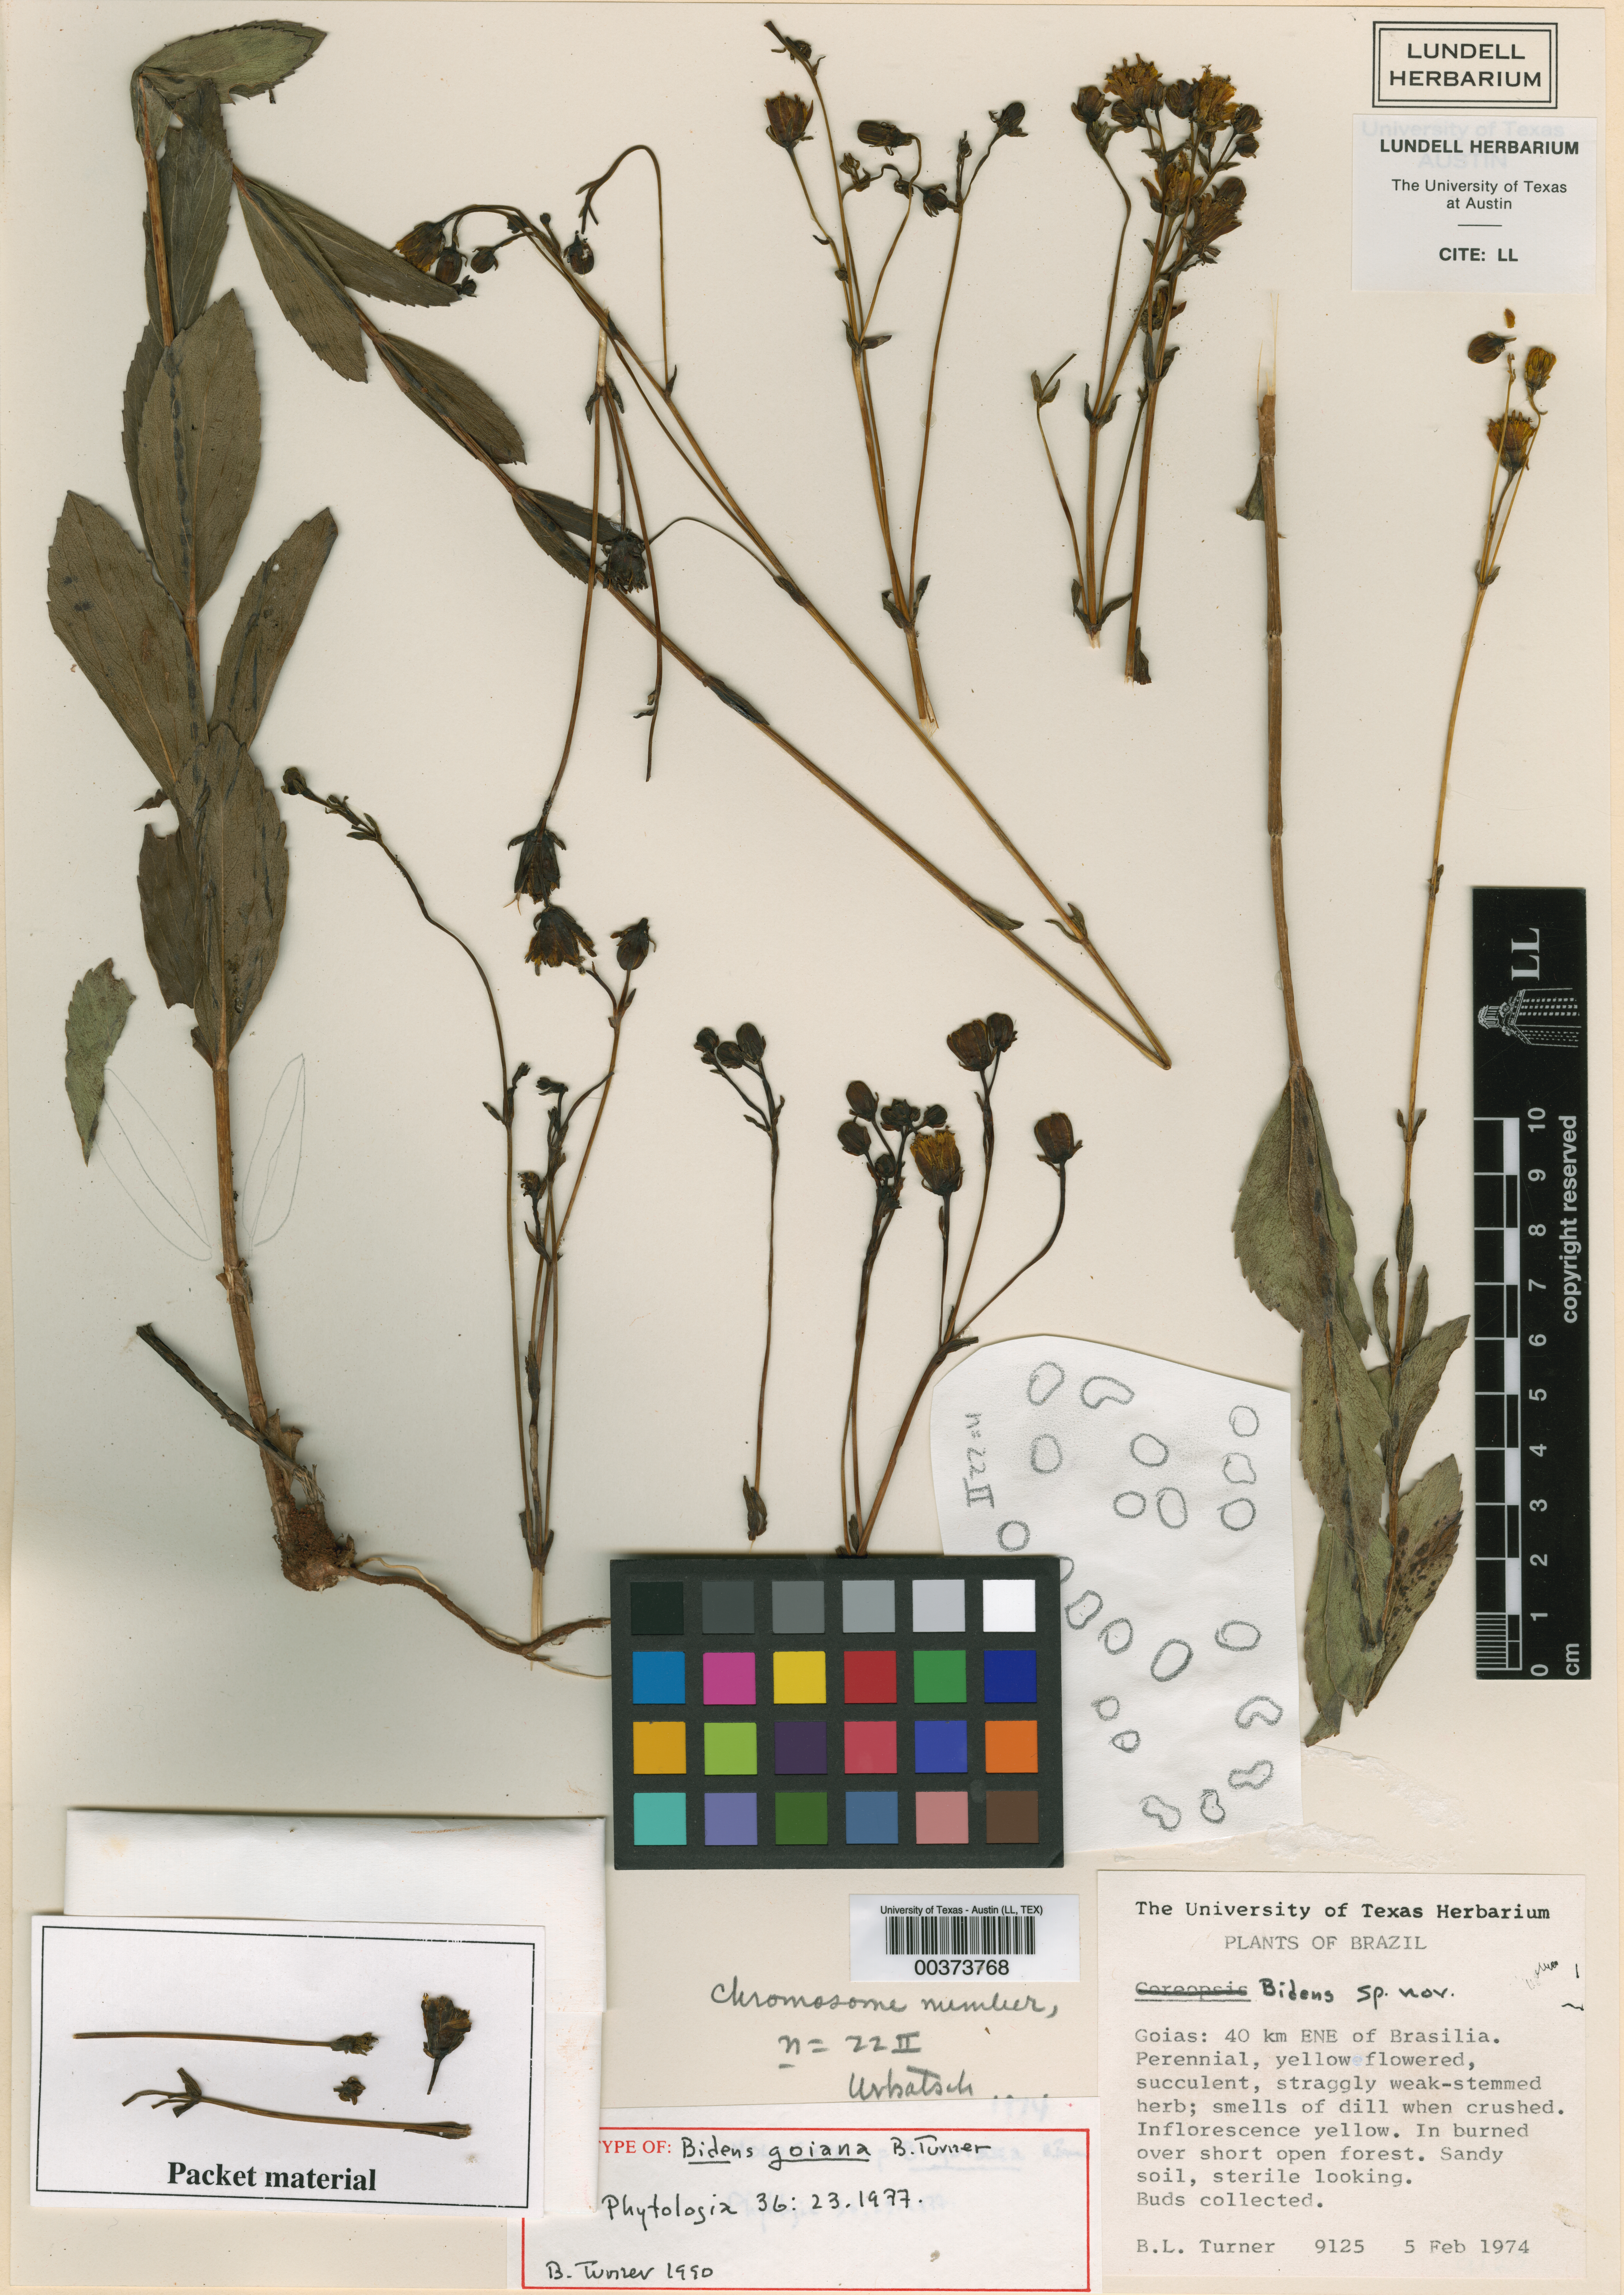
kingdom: Plantae
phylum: Tracheophyta
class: Magnoliopsida
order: Asterales
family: Asteraceae
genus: Bidens
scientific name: Bidens goiana
